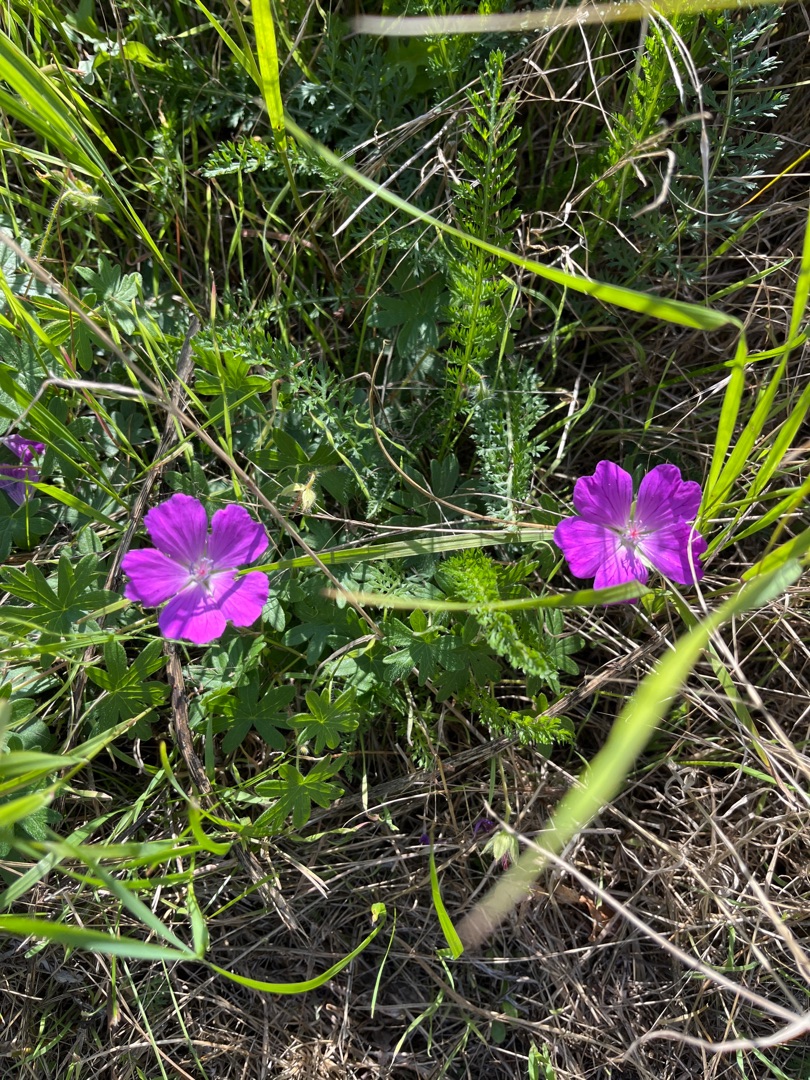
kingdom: Plantae
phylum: Tracheophyta
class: Magnoliopsida
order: Geraniales
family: Geraniaceae
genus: Geranium
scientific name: Geranium sanguineum
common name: Blodrød storkenæb
